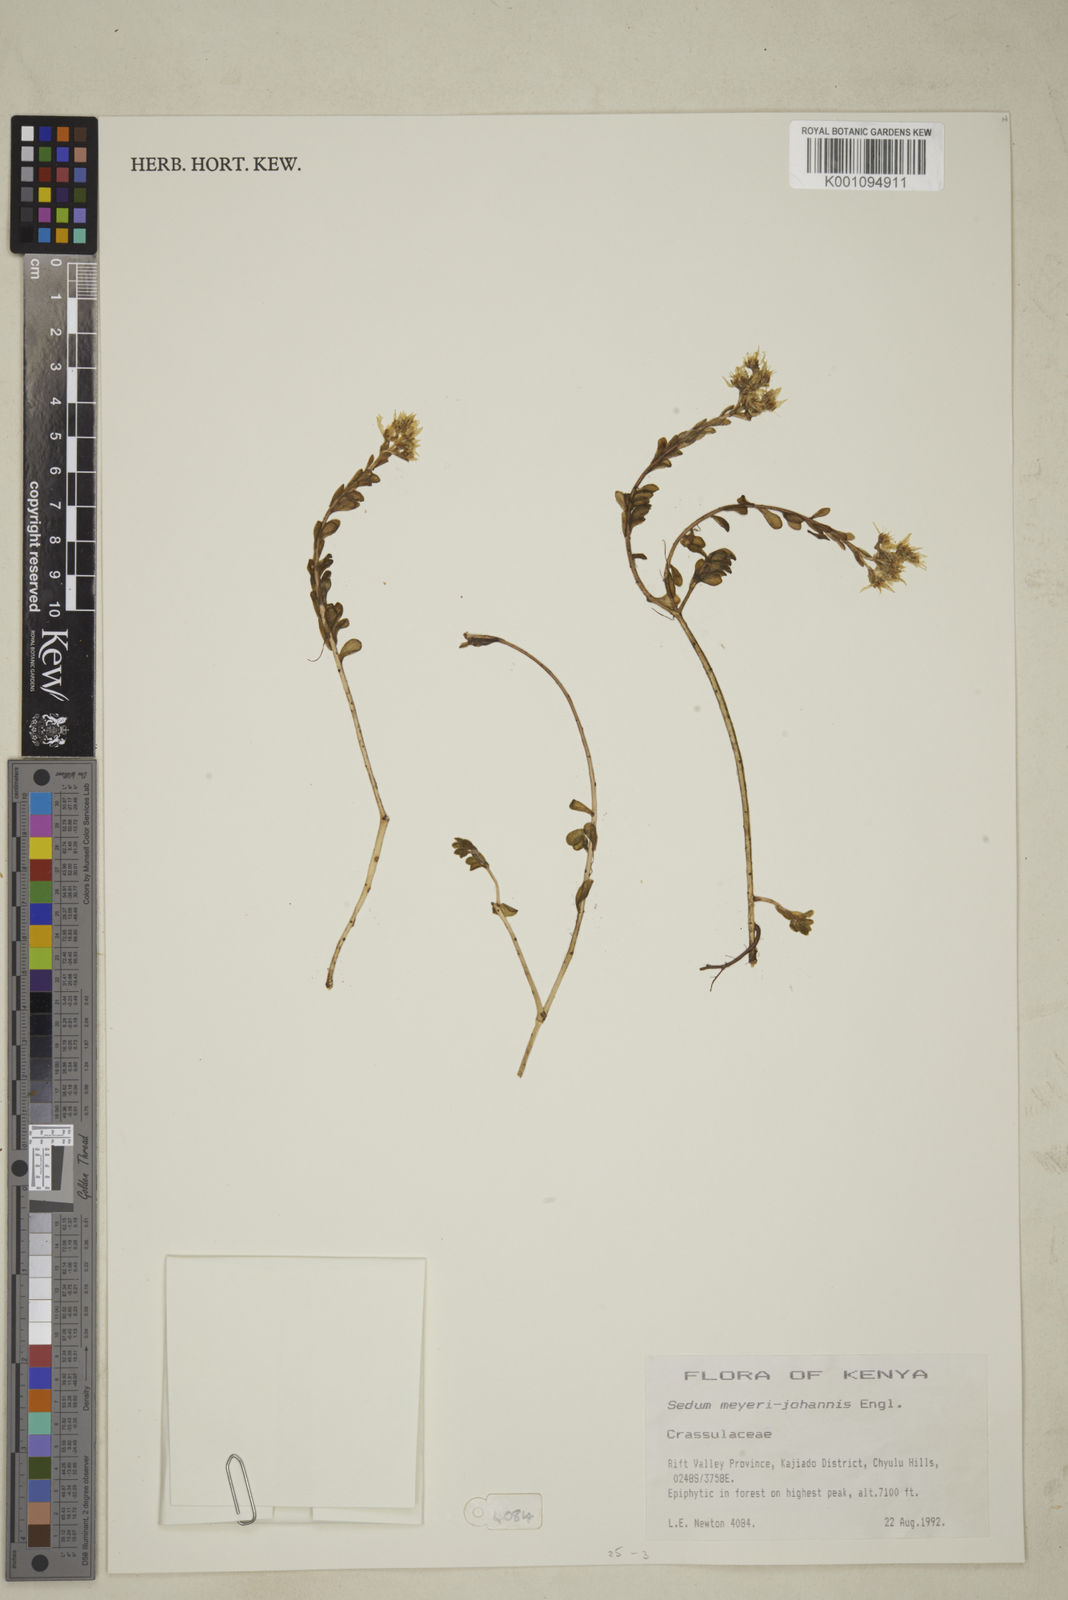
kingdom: Plantae
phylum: Tracheophyta
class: Magnoliopsida
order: Saxifragales
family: Crassulaceae
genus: Sedum
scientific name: Sedum meyeri-johannis
